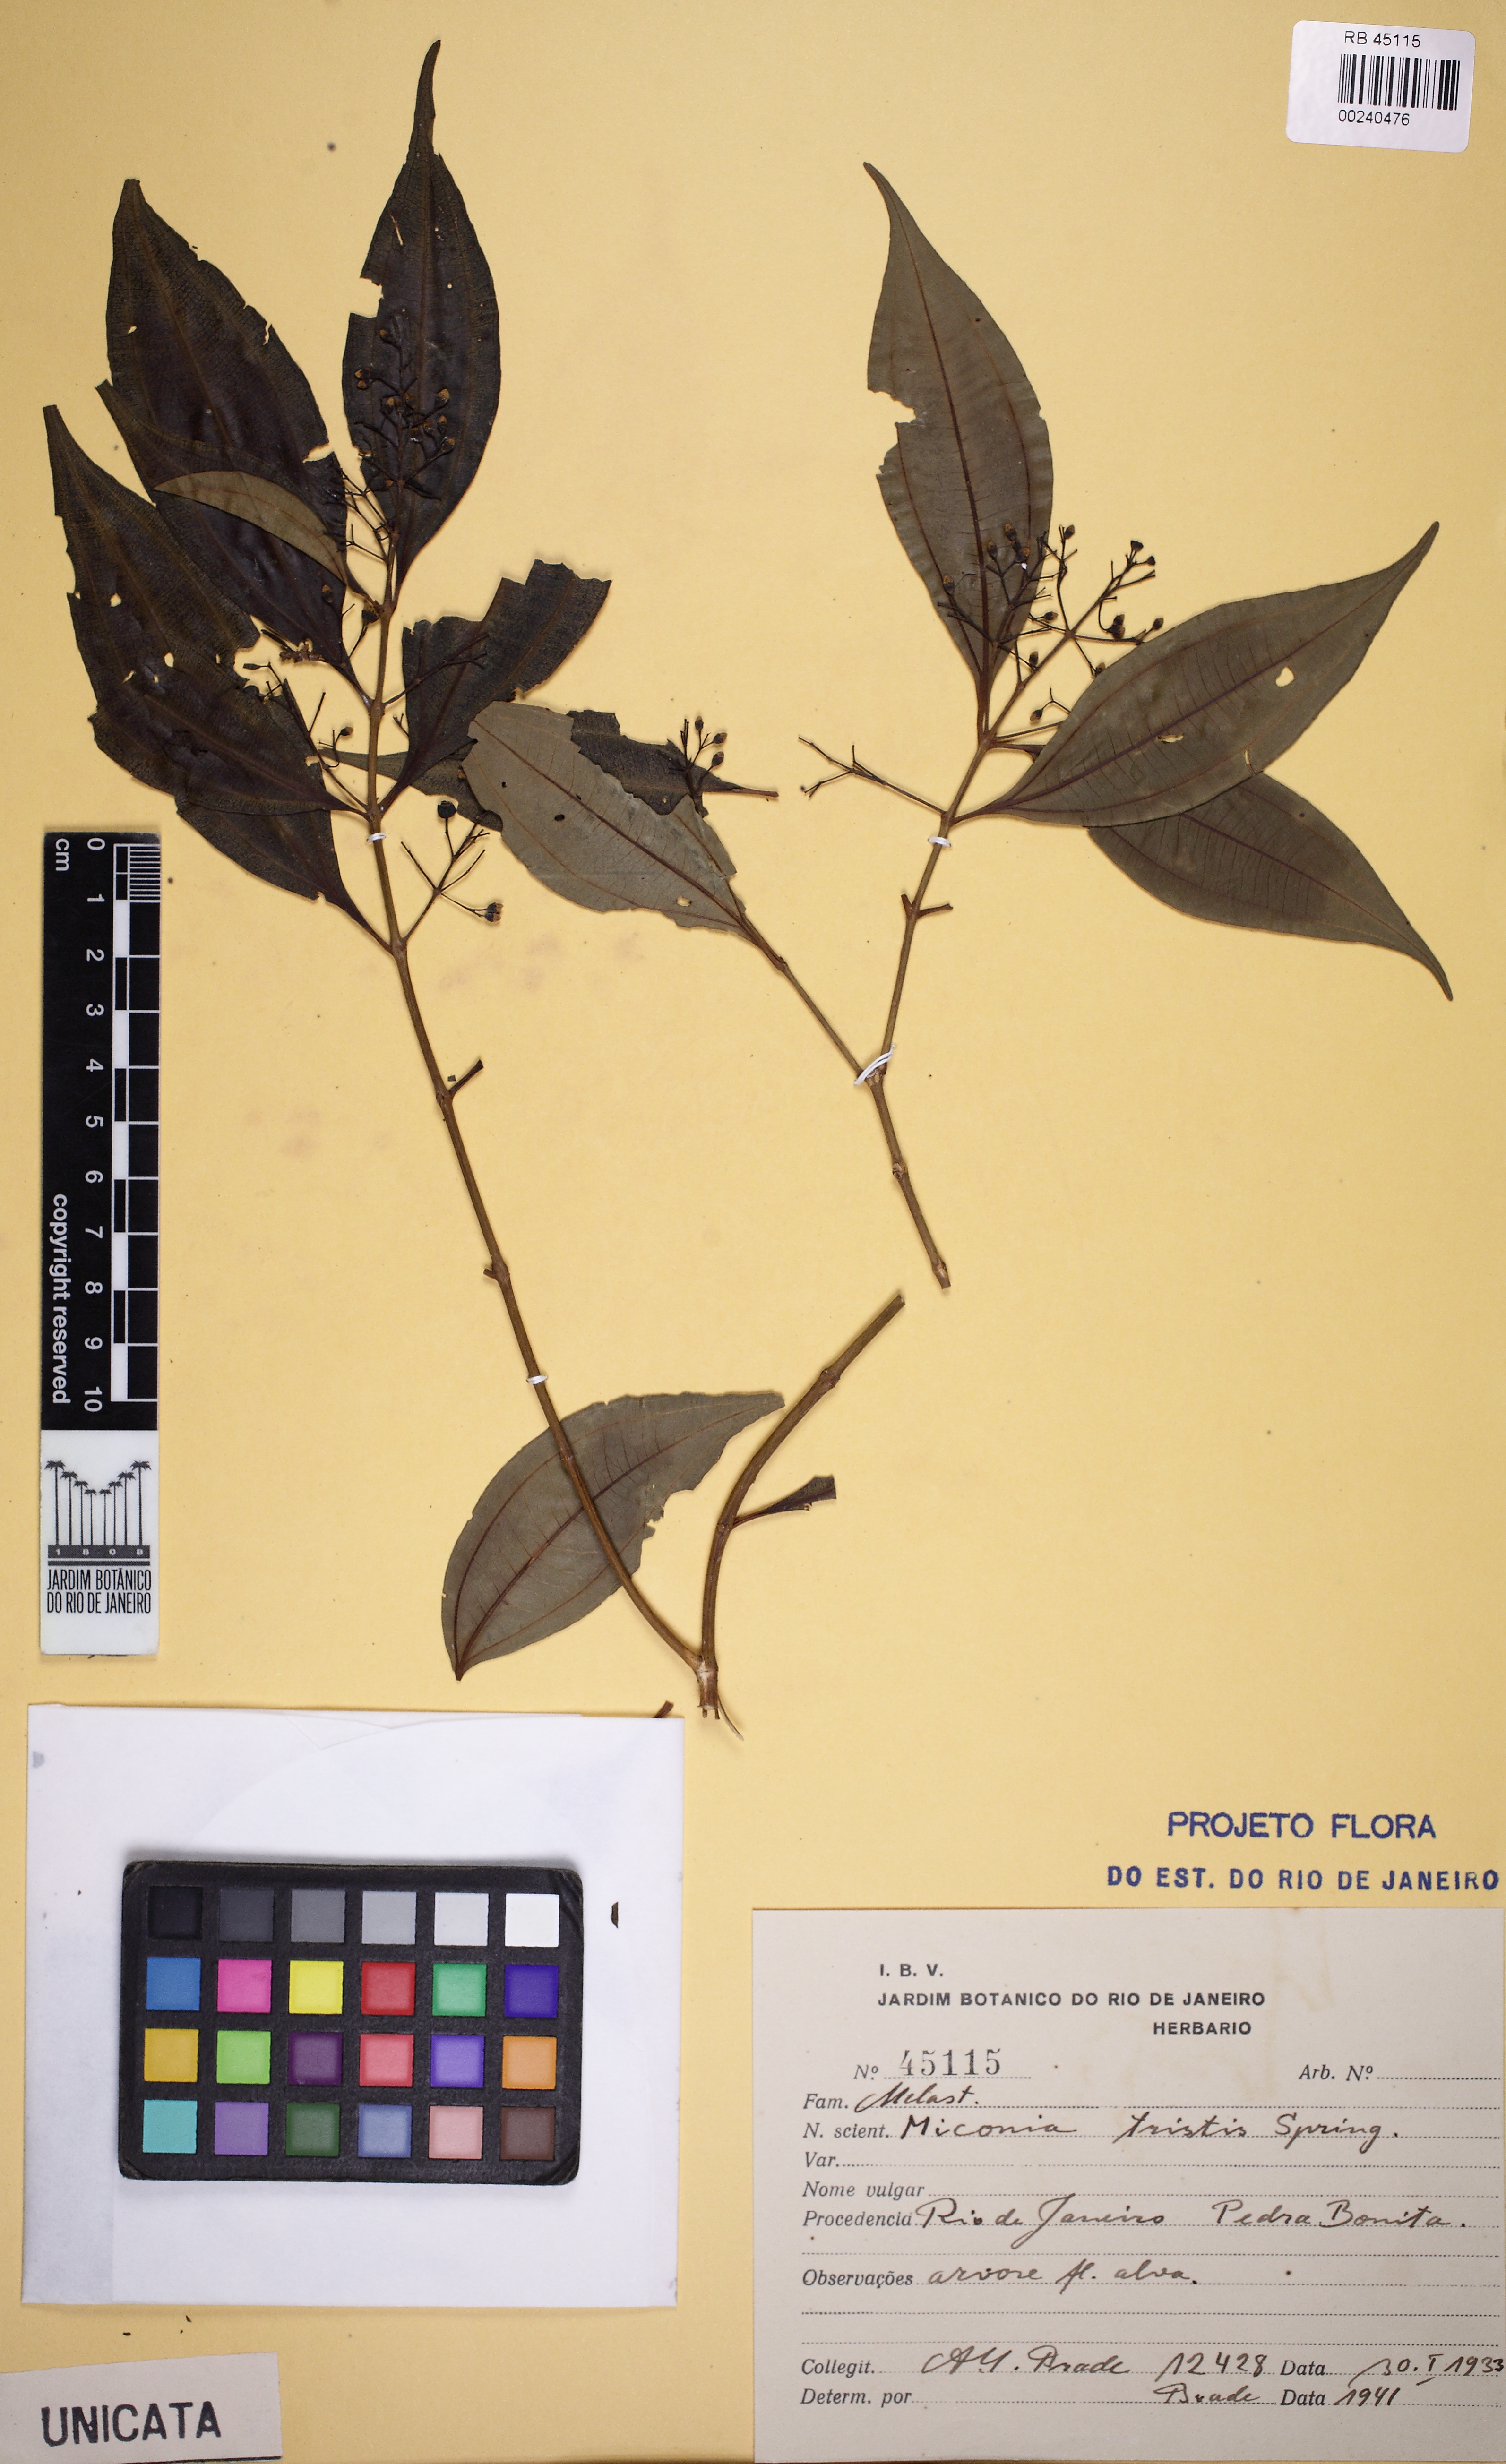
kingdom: Plantae
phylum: Tracheophyta
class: Magnoliopsida
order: Myrtales
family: Melastomataceae
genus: Miconia
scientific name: Miconia tristis
